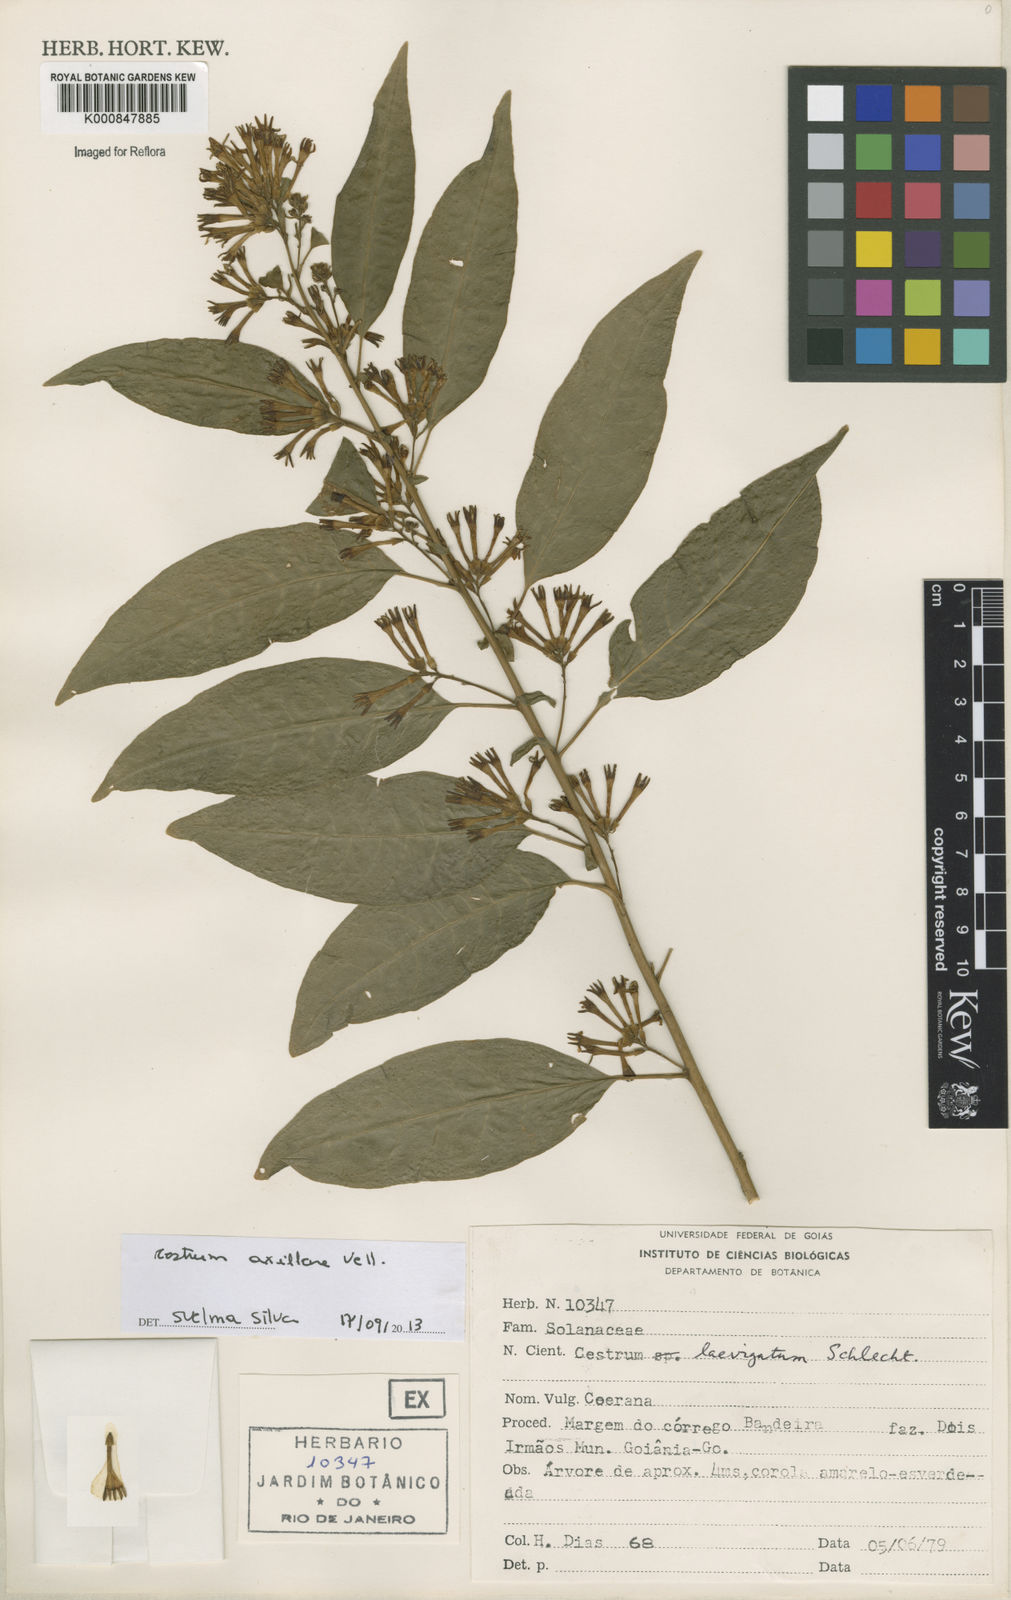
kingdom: Plantae
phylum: Tracheophyta
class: Magnoliopsida
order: Solanales
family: Solanaceae
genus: Cestrum
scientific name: Cestrum laevigatum
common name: Inkberry
